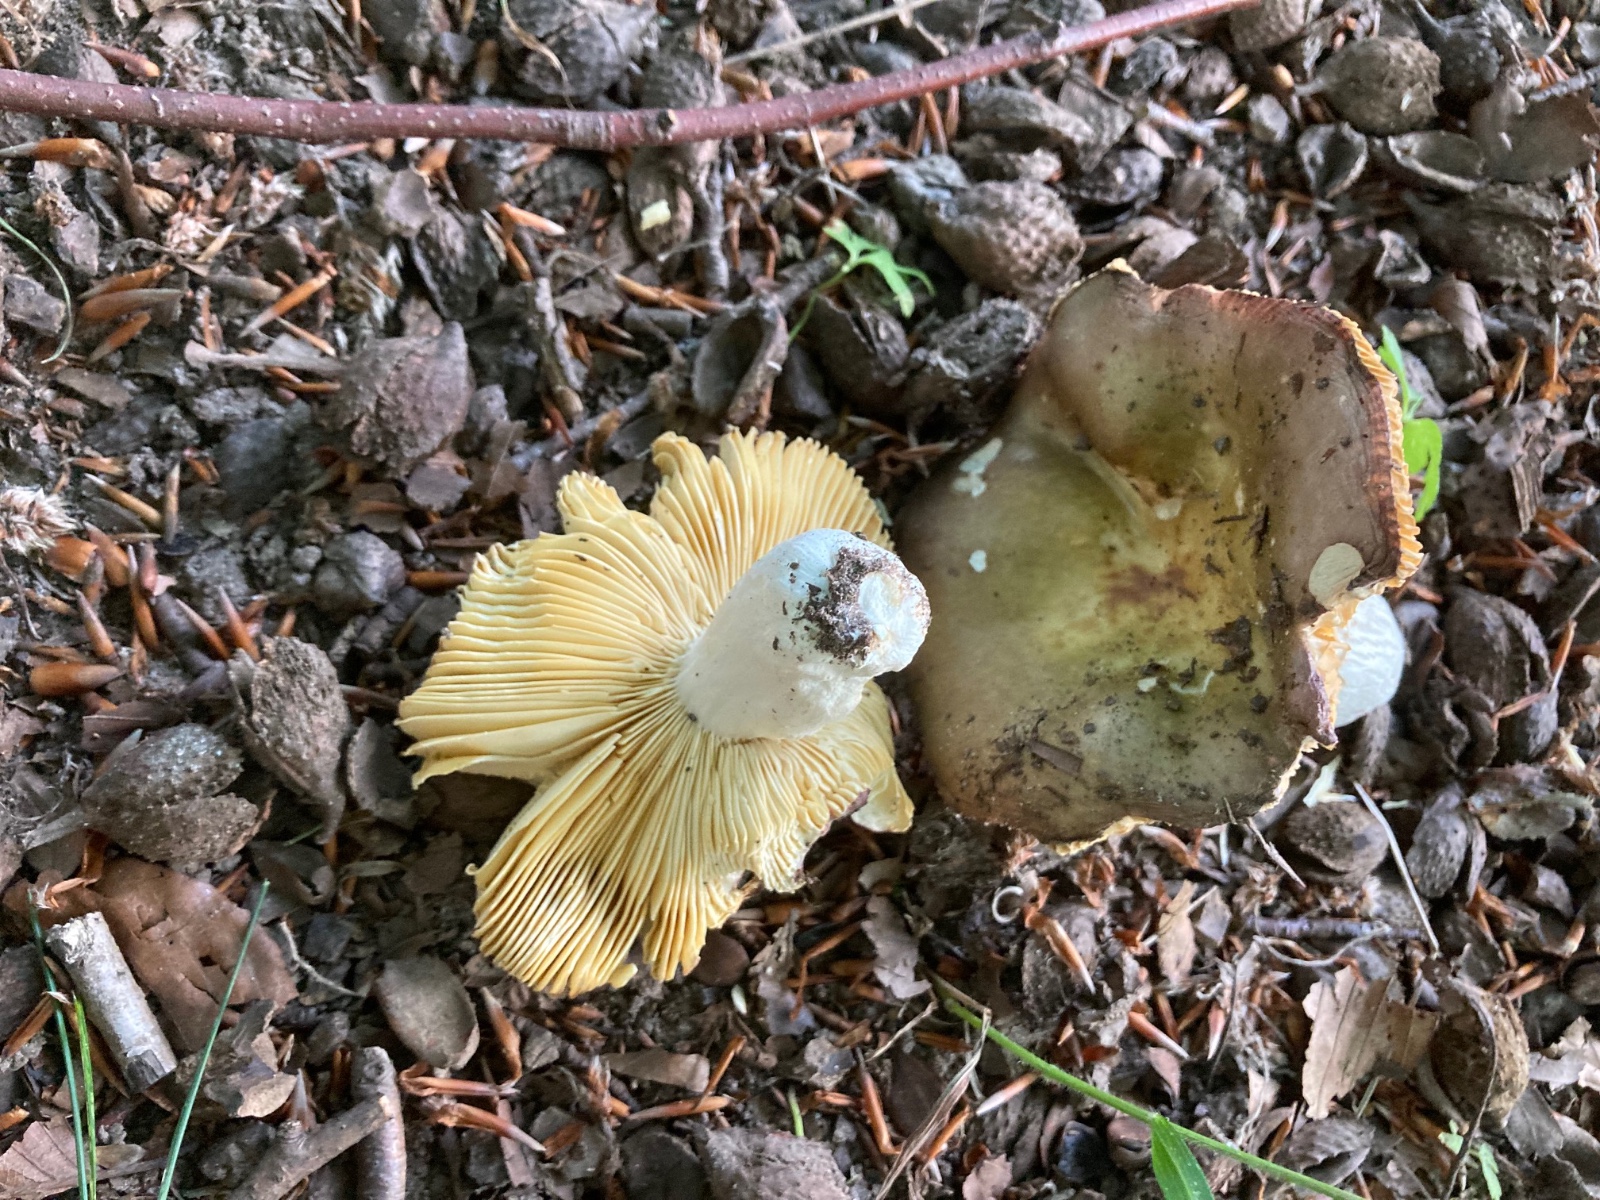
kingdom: Fungi
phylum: Basidiomycota
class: Agaricomycetes
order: Russulales
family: Russulaceae
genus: Russula
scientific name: Russula romellii
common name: romells skørhat
